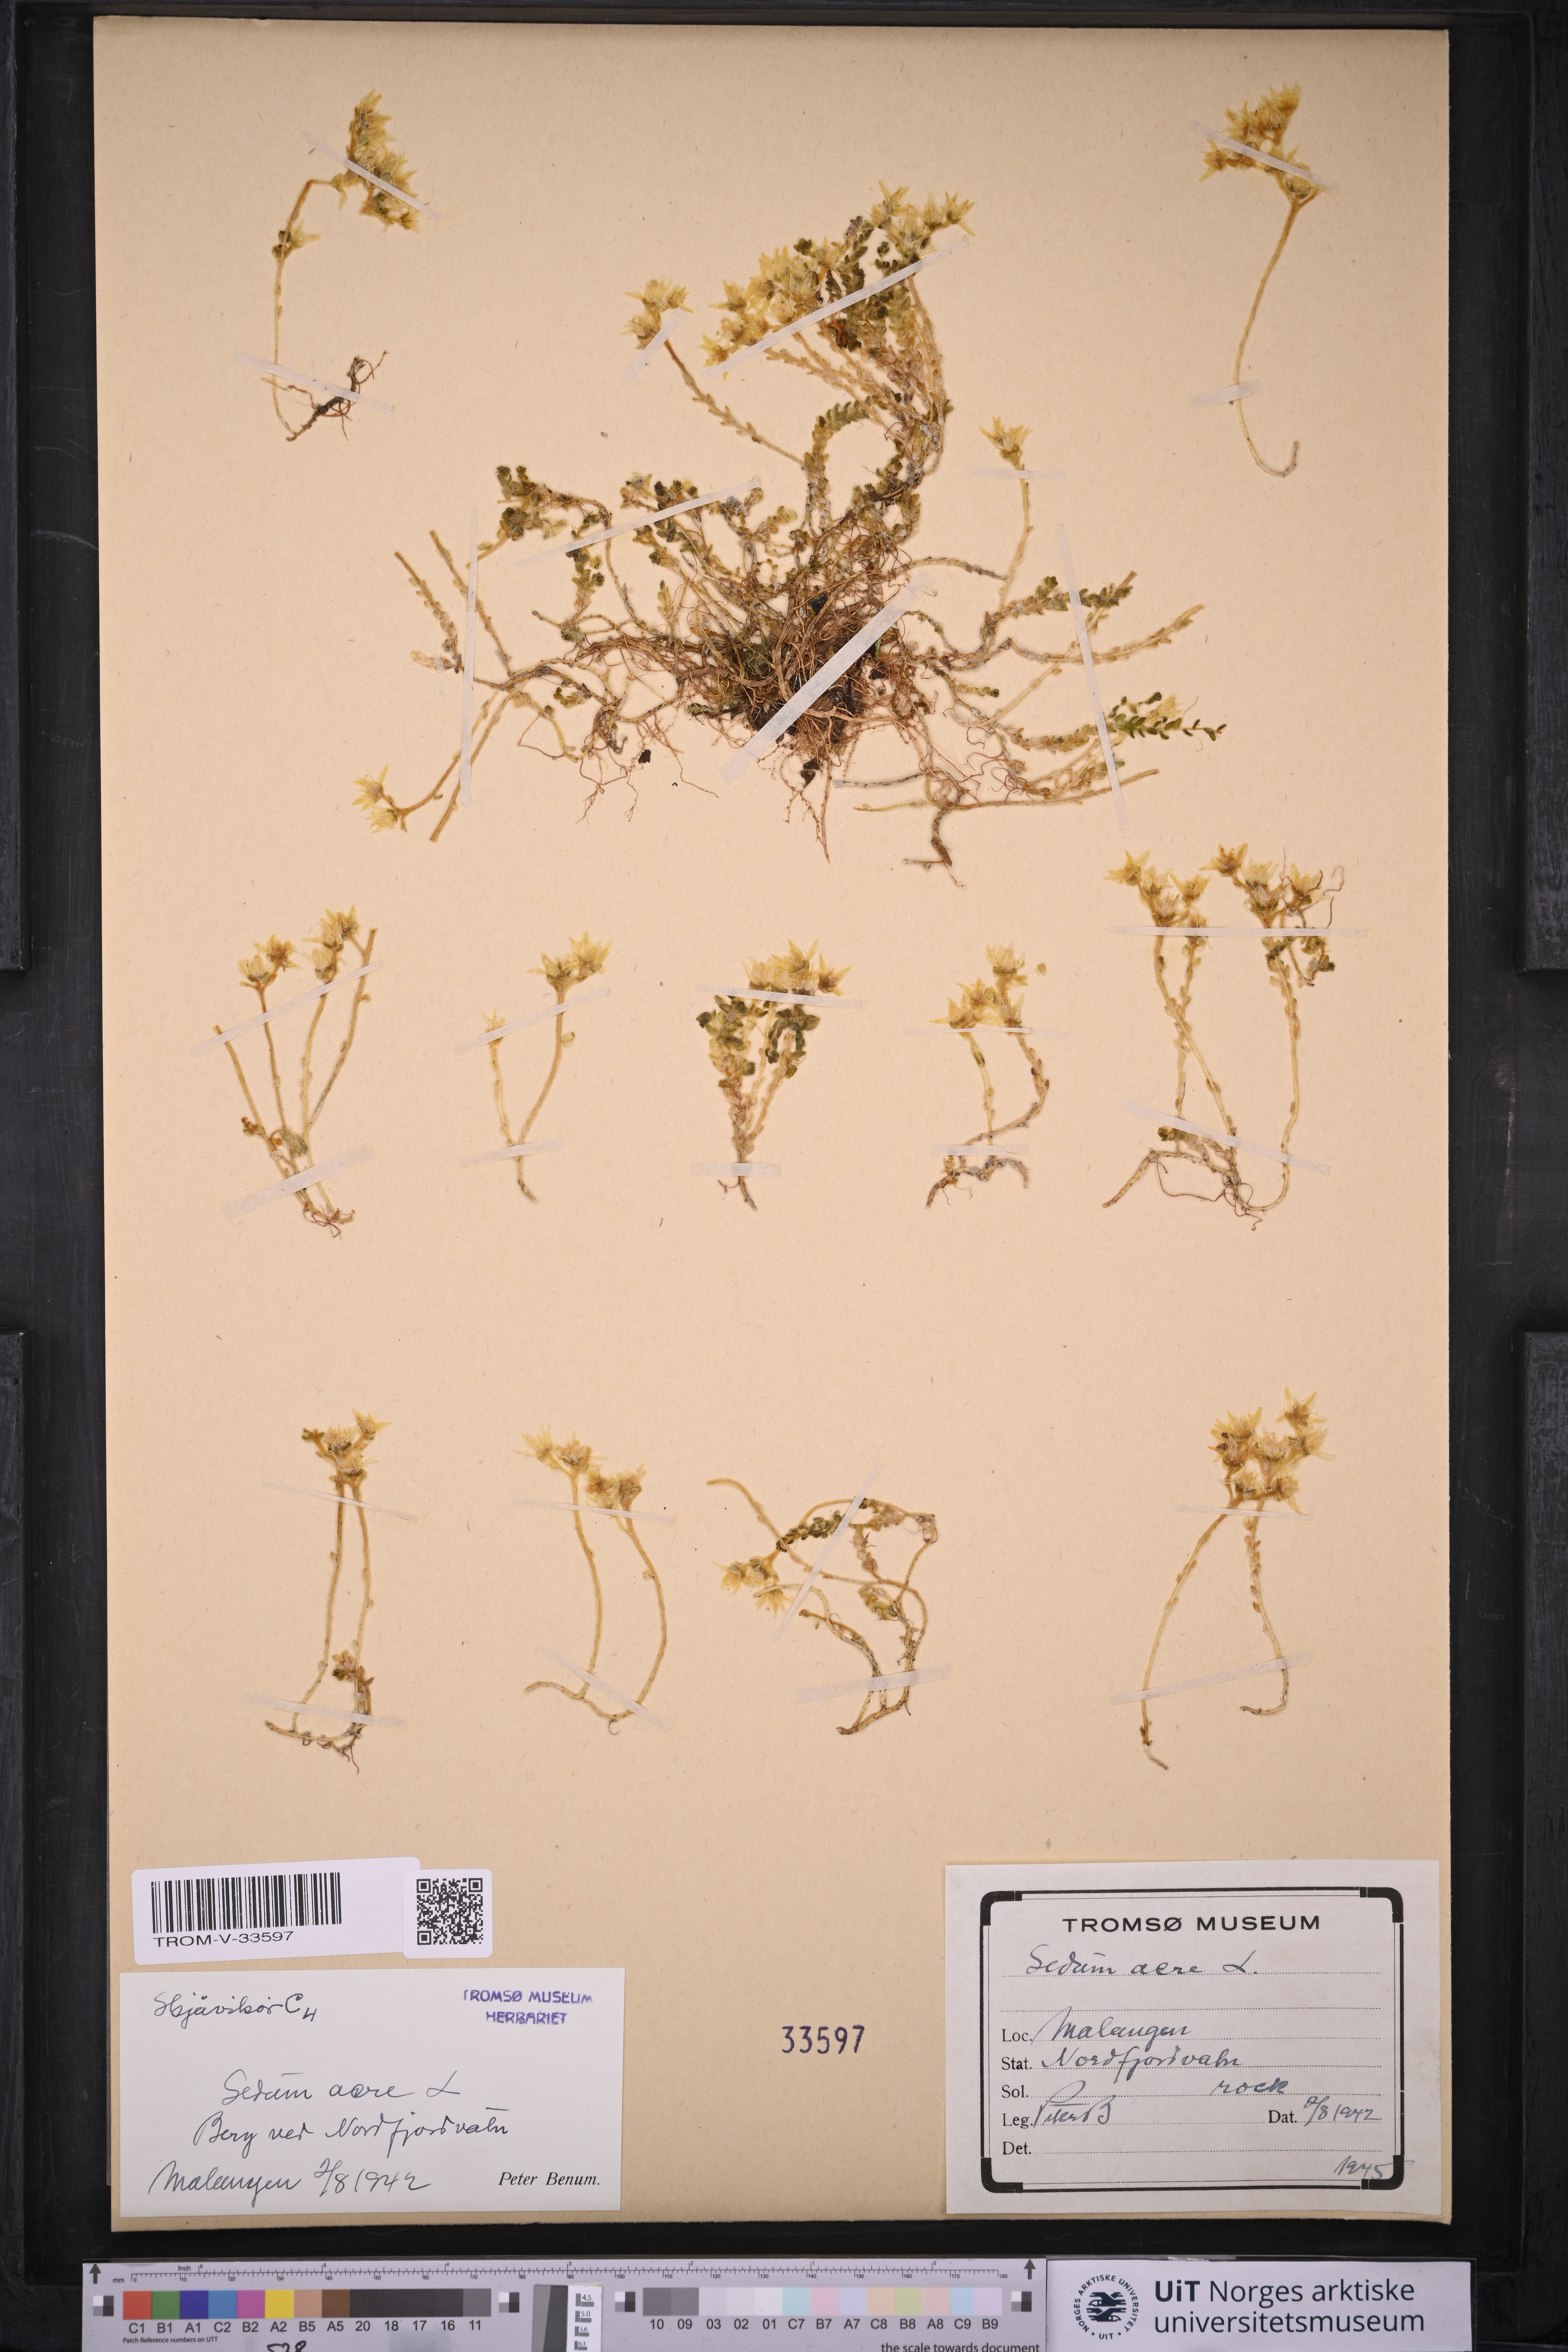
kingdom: Plantae
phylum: Tracheophyta
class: Magnoliopsida
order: Saxifragales
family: Crassulaceae
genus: Sedum
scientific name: Sedum acre
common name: Biting stonecrop
